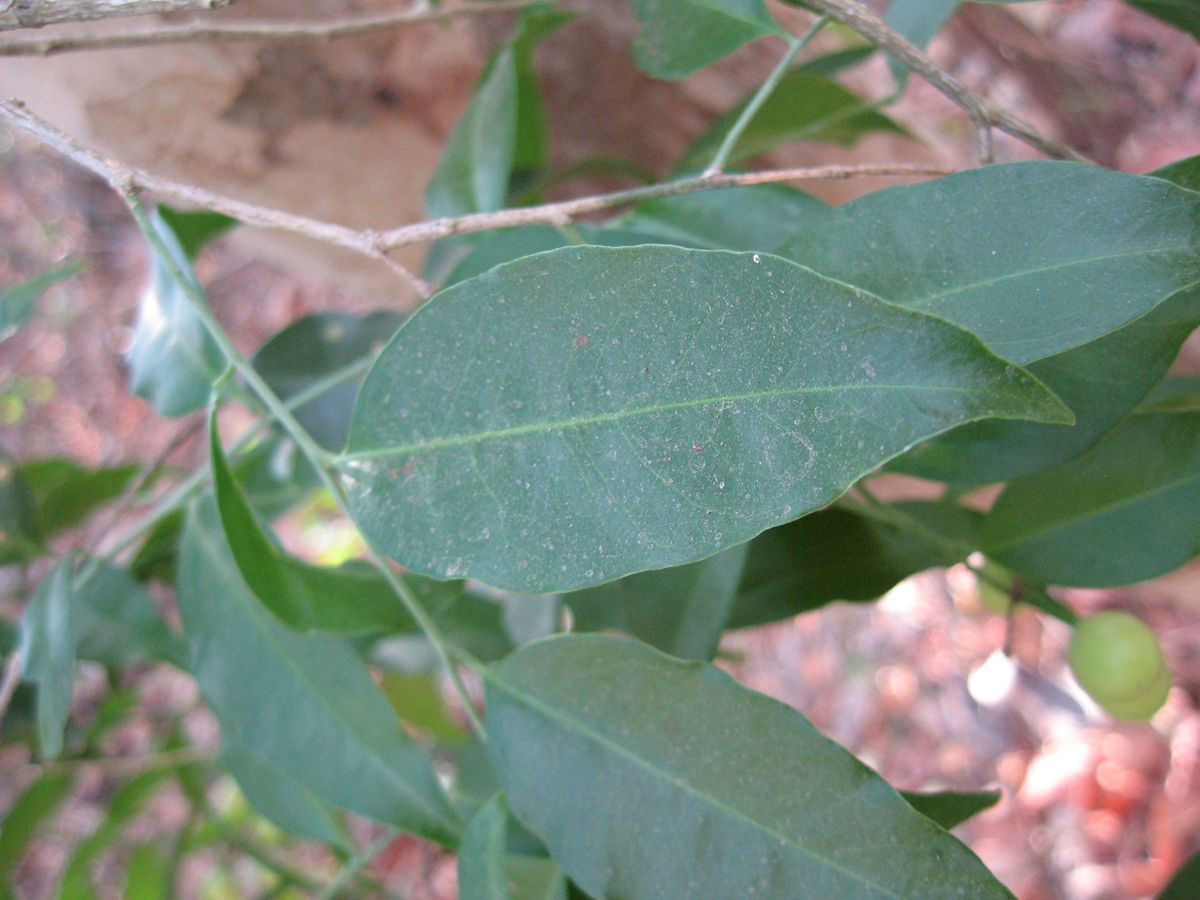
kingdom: Plantae
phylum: Tracheophyta
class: Magnoliopsida
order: Santalales
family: Opiliaceae
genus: Agonandra
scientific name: Agonandra racemosa
